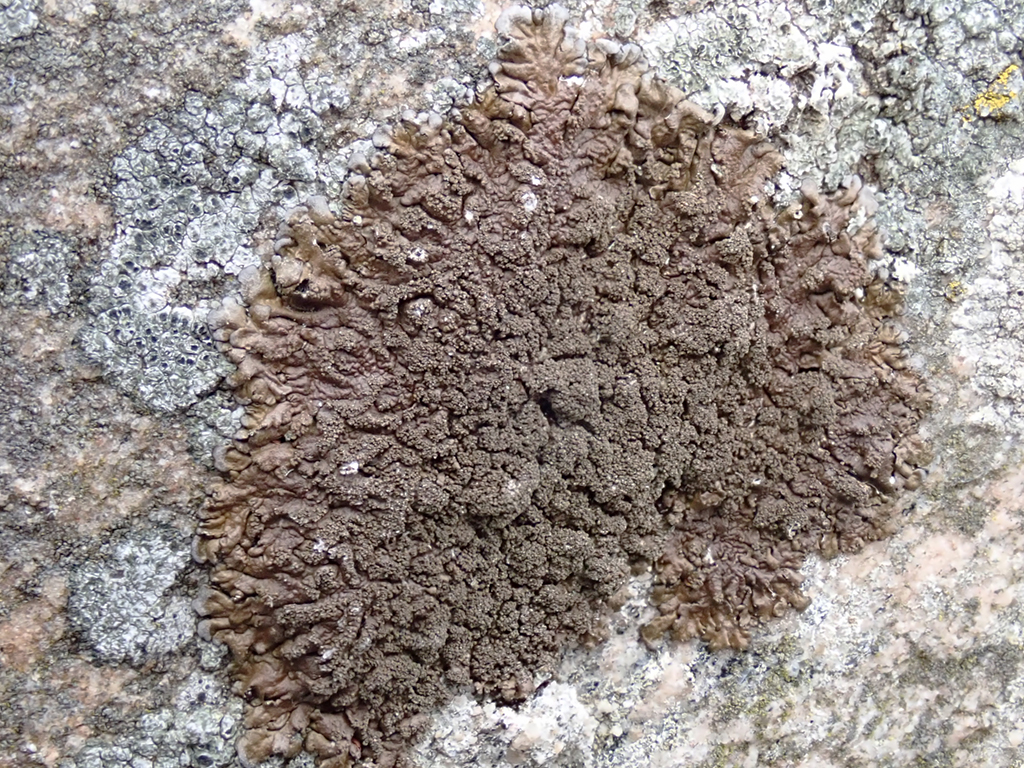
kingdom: Fungi
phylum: Ascomycota
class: Lecanoromycetes
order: Lecanorales
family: Parmeliaceae
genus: Xanthoparmelia
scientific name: Xanthoparmelia verruculifera
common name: småknoppet skållav
